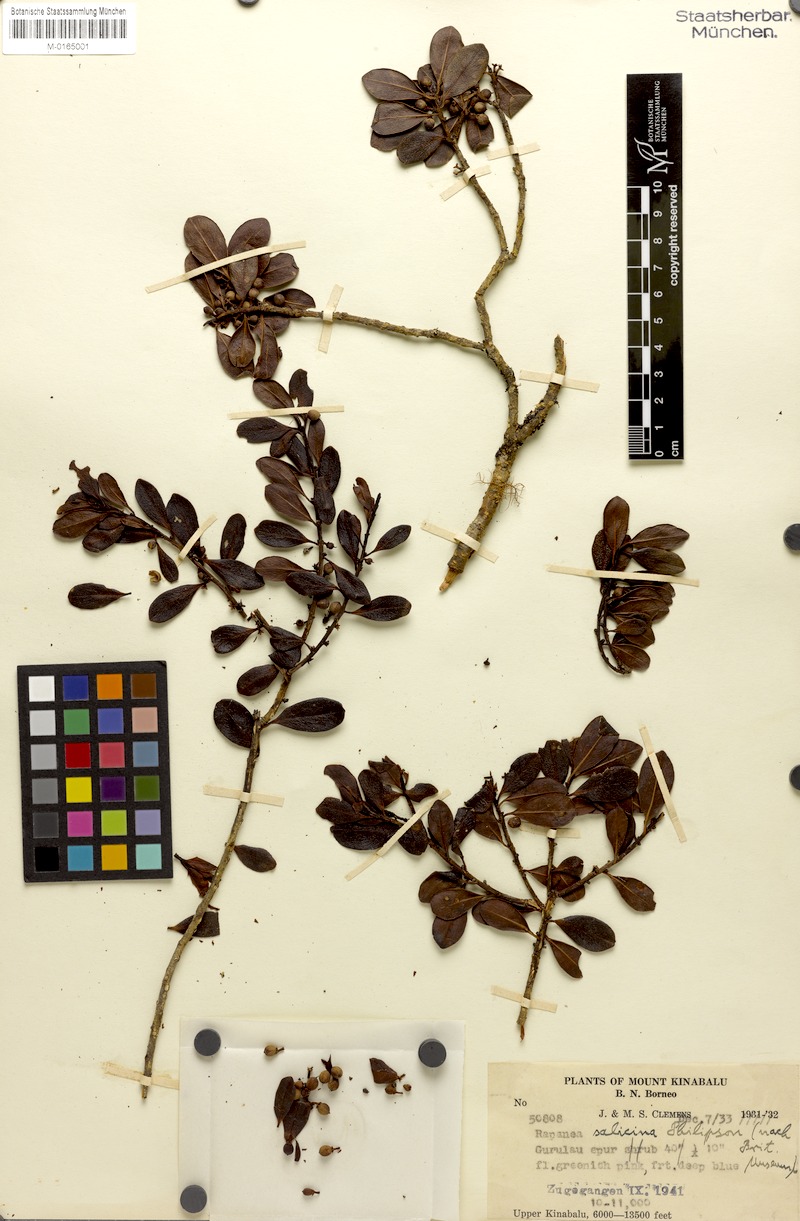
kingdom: Plantae
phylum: Tracheophyta
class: Magnoliopsida
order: Ericales
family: Primulaceae
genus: Myrsine
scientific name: Myrsine
